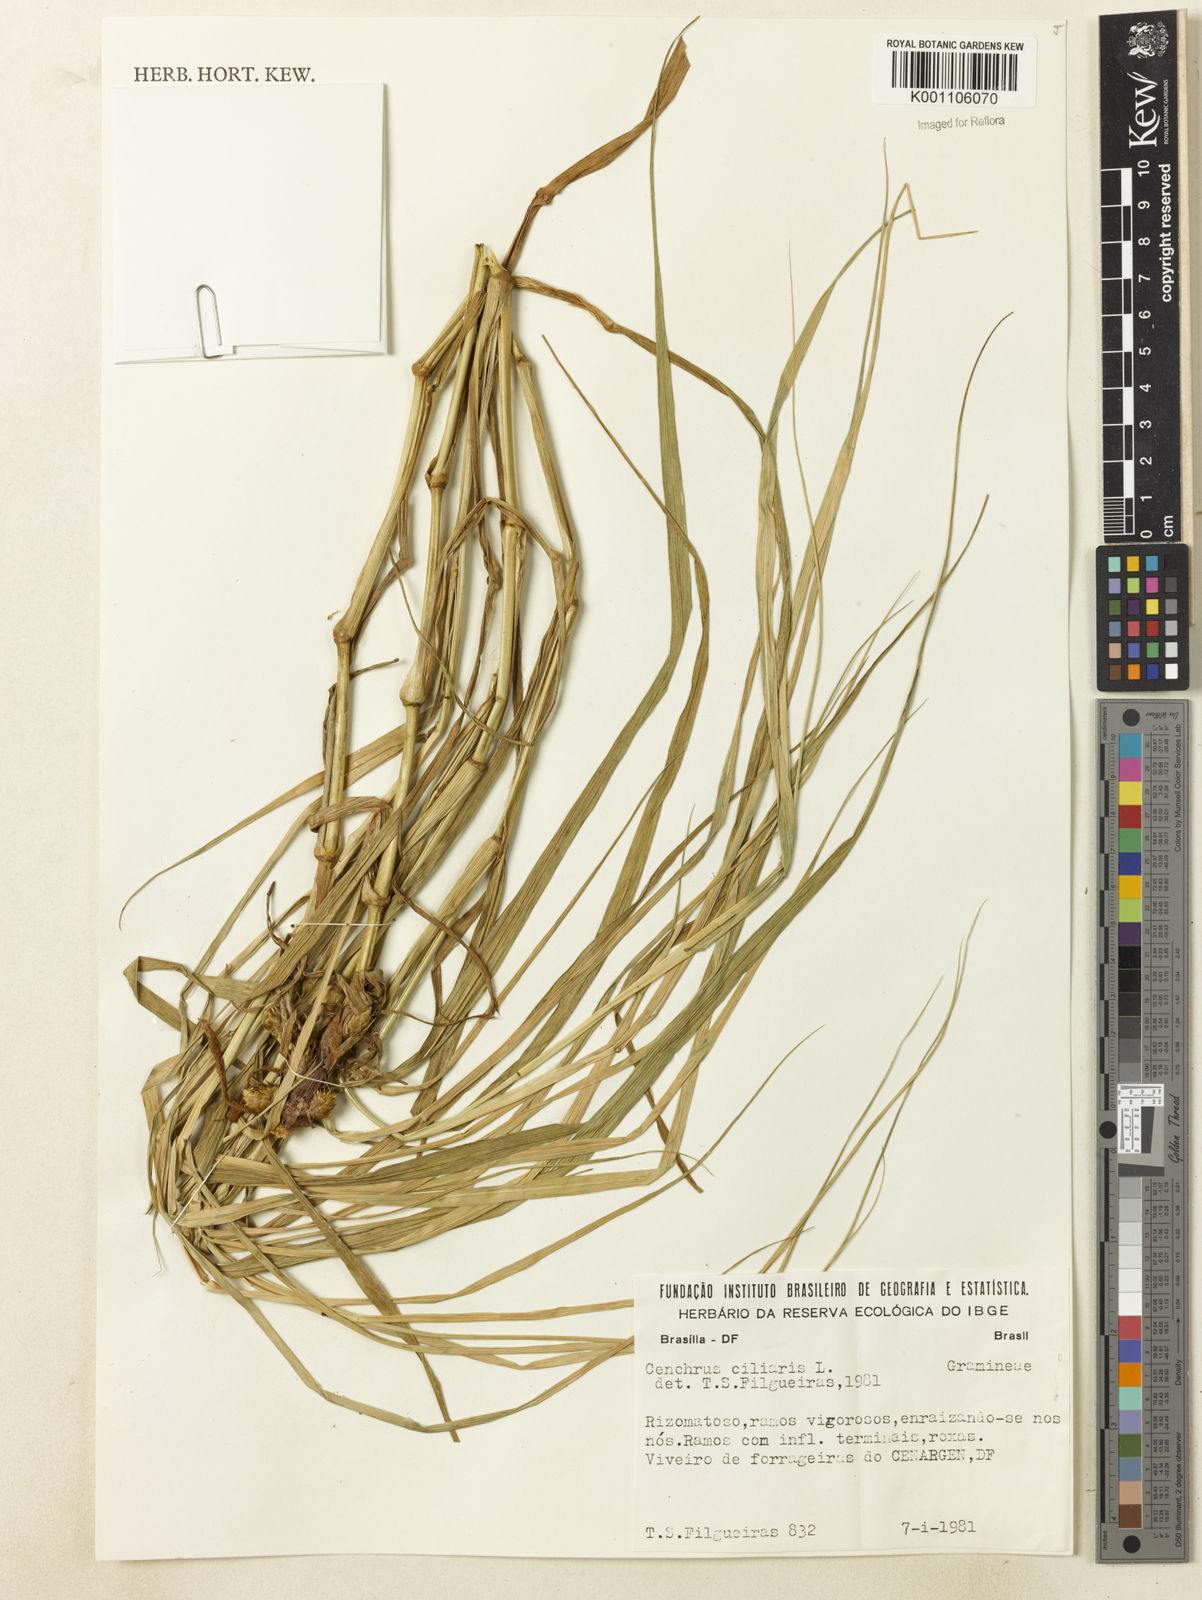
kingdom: Plantae
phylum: Tracheophyta
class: Liliopsida
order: Poales
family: Poaceae
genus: Cenchrus
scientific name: Cenchrus ciliaris
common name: Buffelgrass
